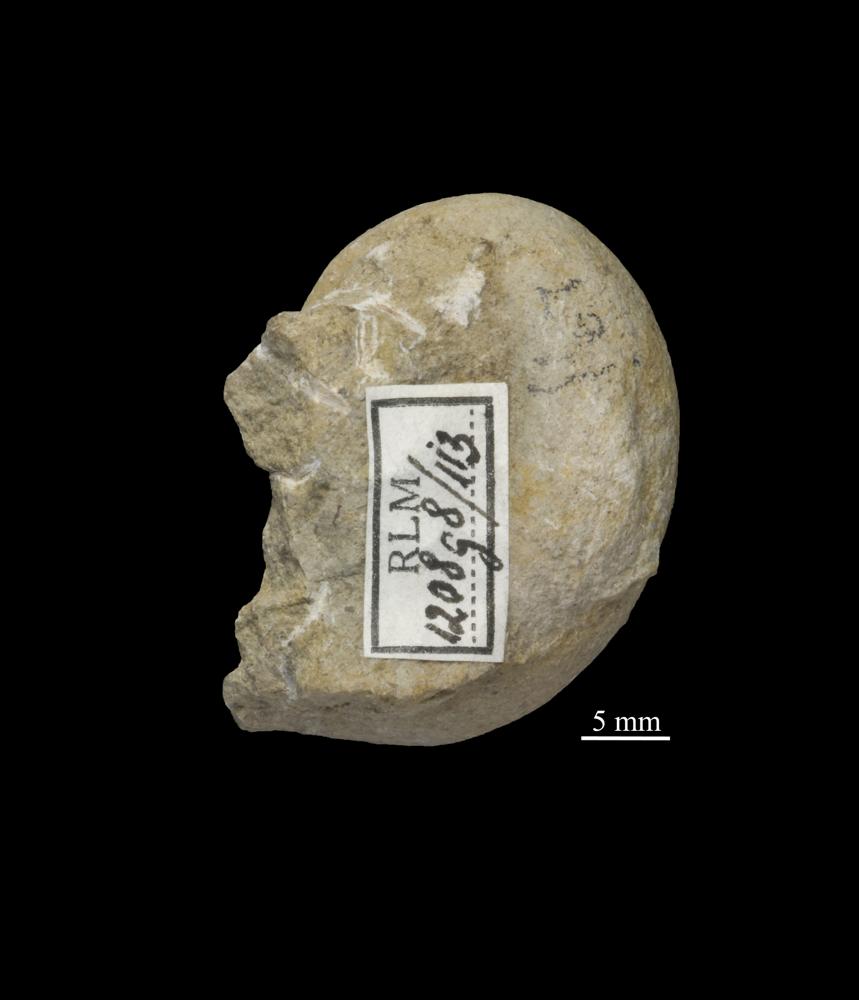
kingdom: Animalia
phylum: Mollusca
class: Gastropoda
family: Holopeidae
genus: Pachystrophia
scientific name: Pachystrophia Euomphalus devexus
